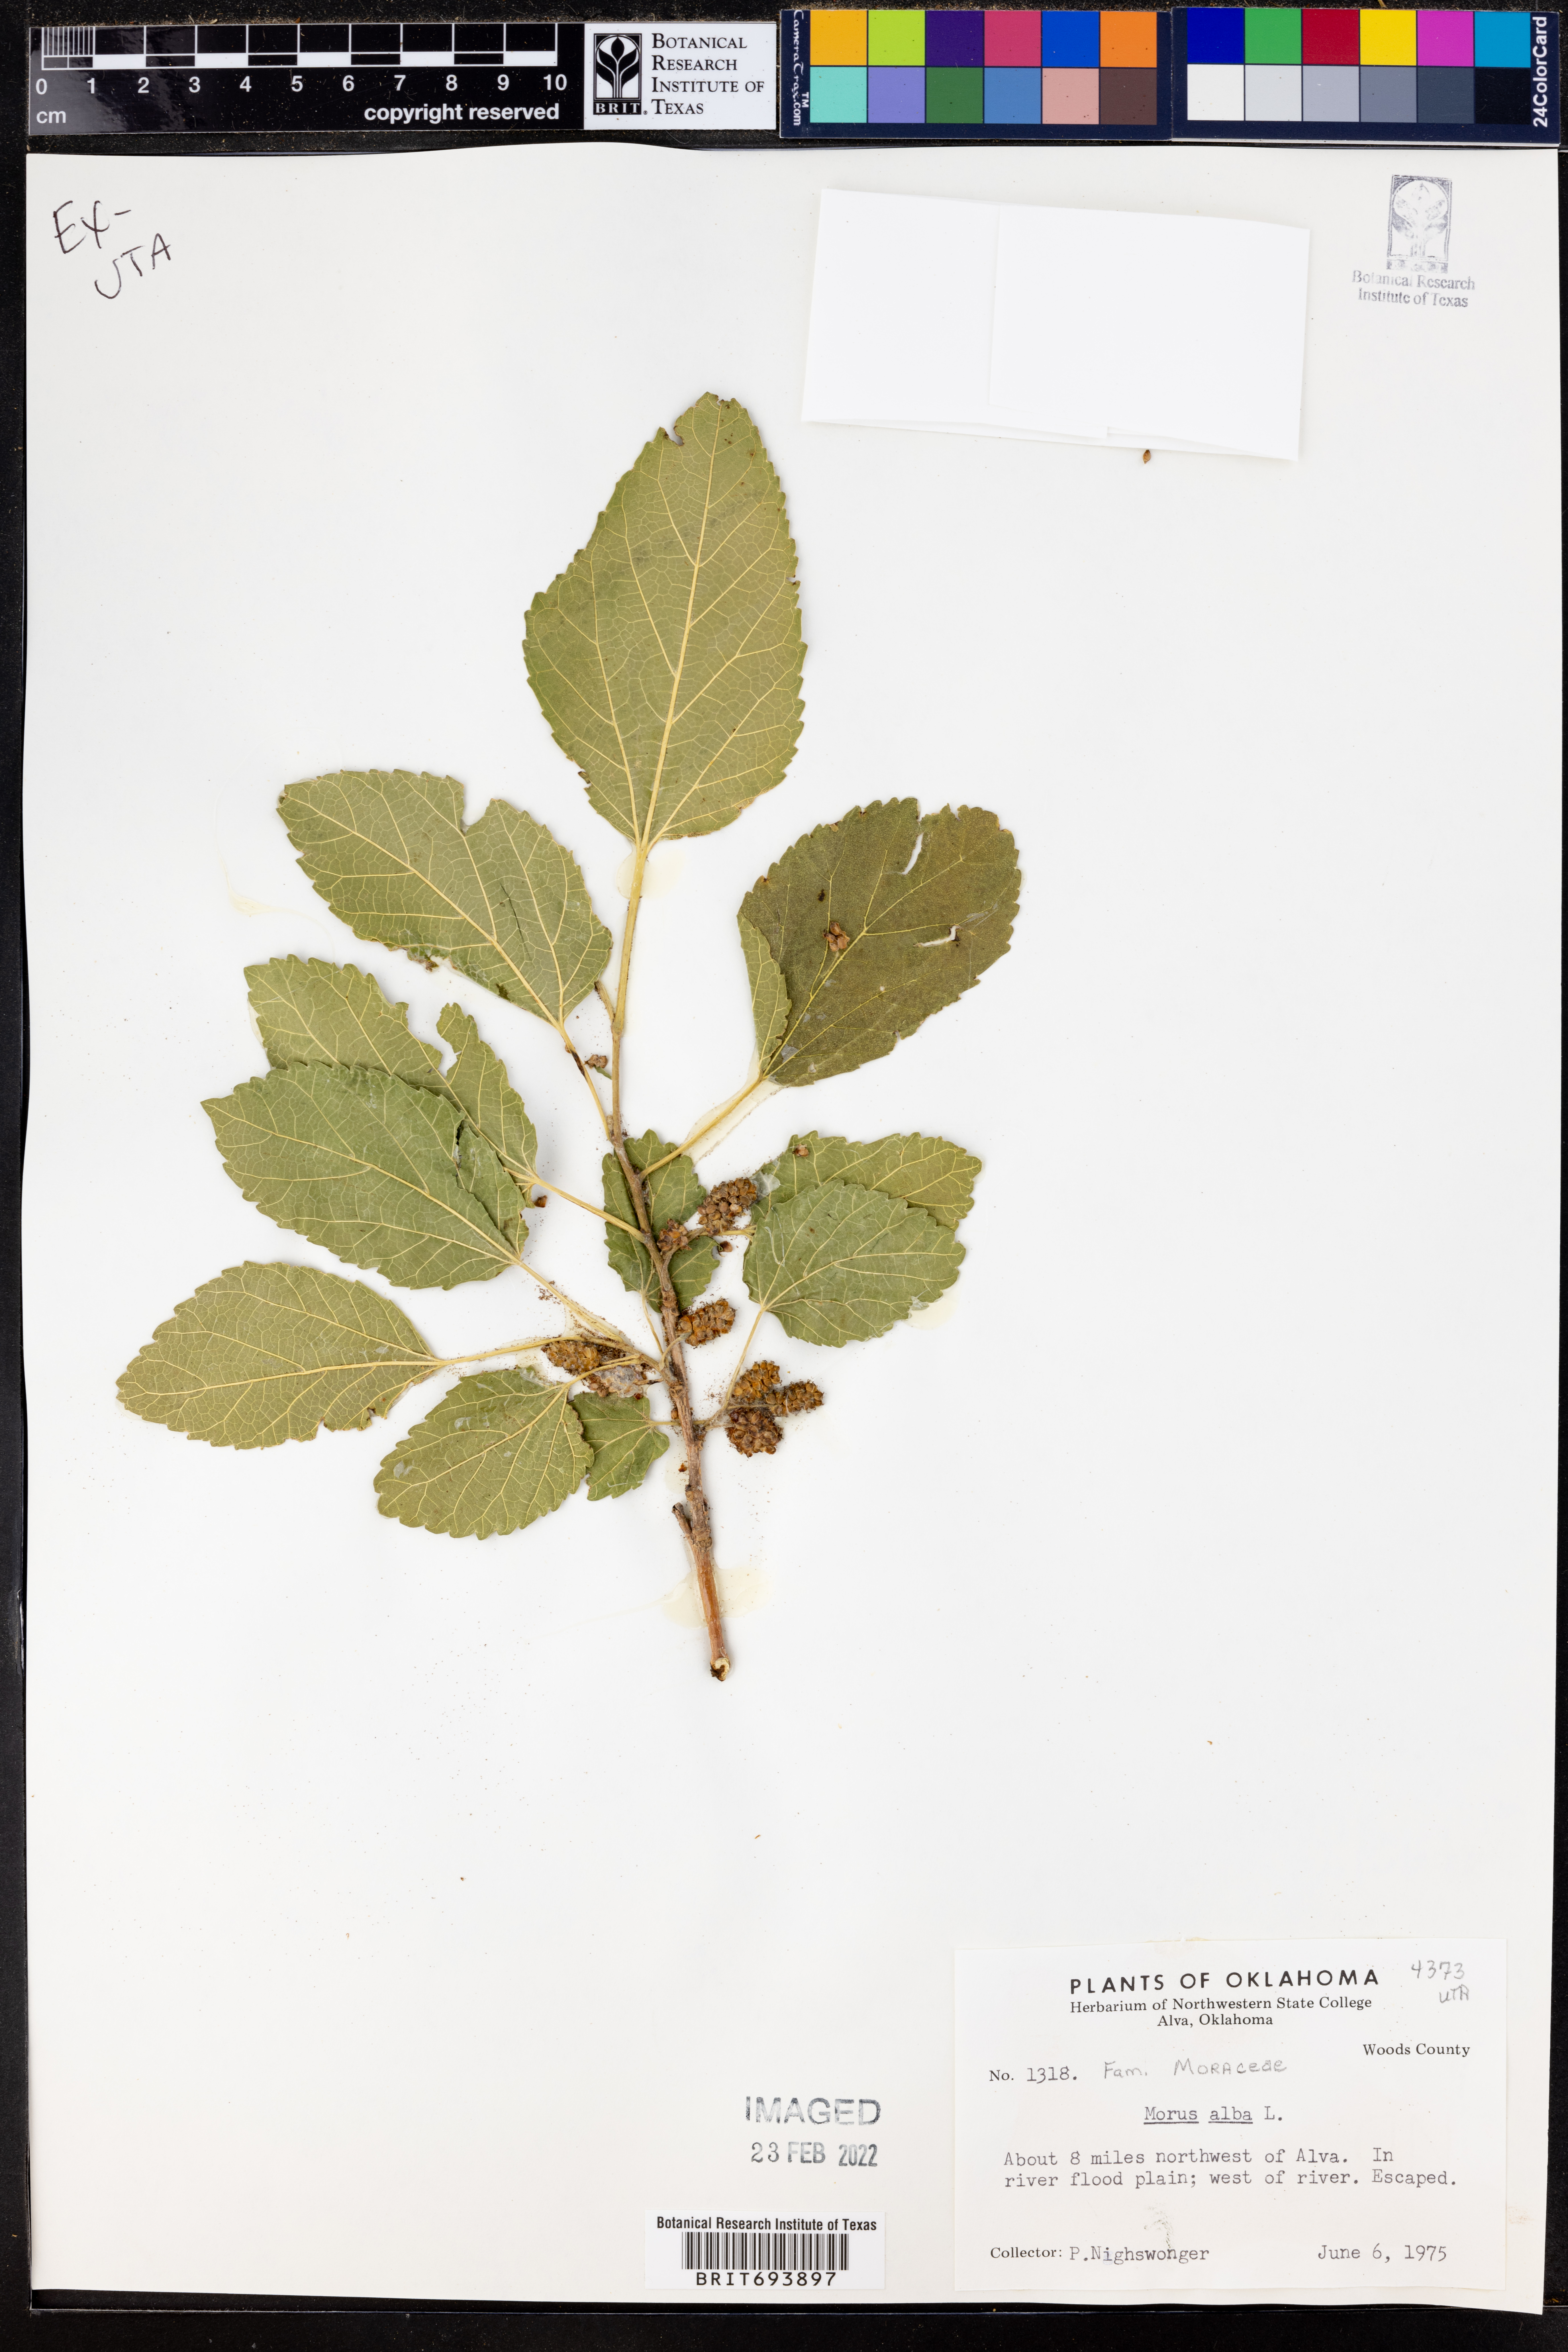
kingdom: Plantae
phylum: Tracheophyta
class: Magnoliopsida
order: Rosales
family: Moraceae
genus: Morus
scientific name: Morus alba
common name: White mulberry
